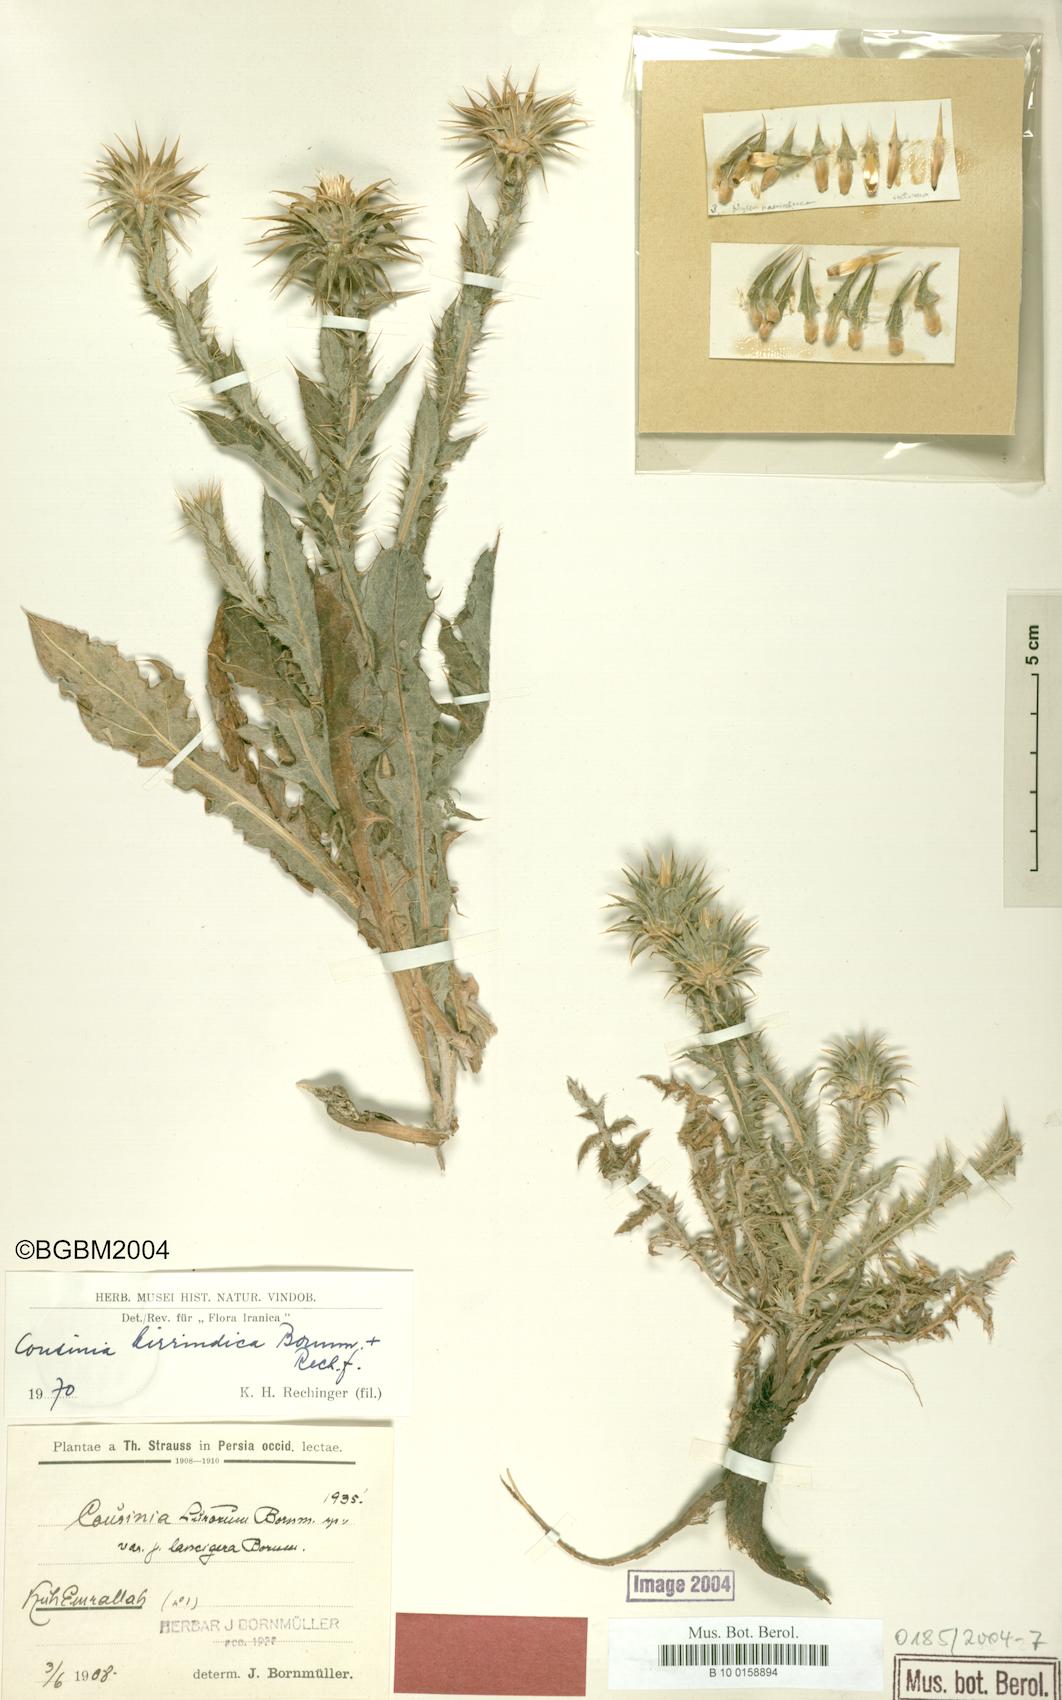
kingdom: Plantae
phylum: Tracheophyta
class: Magnoliopsida
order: Asterales
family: Asteraceae
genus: Cousinia
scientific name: Cousinia lurorum
